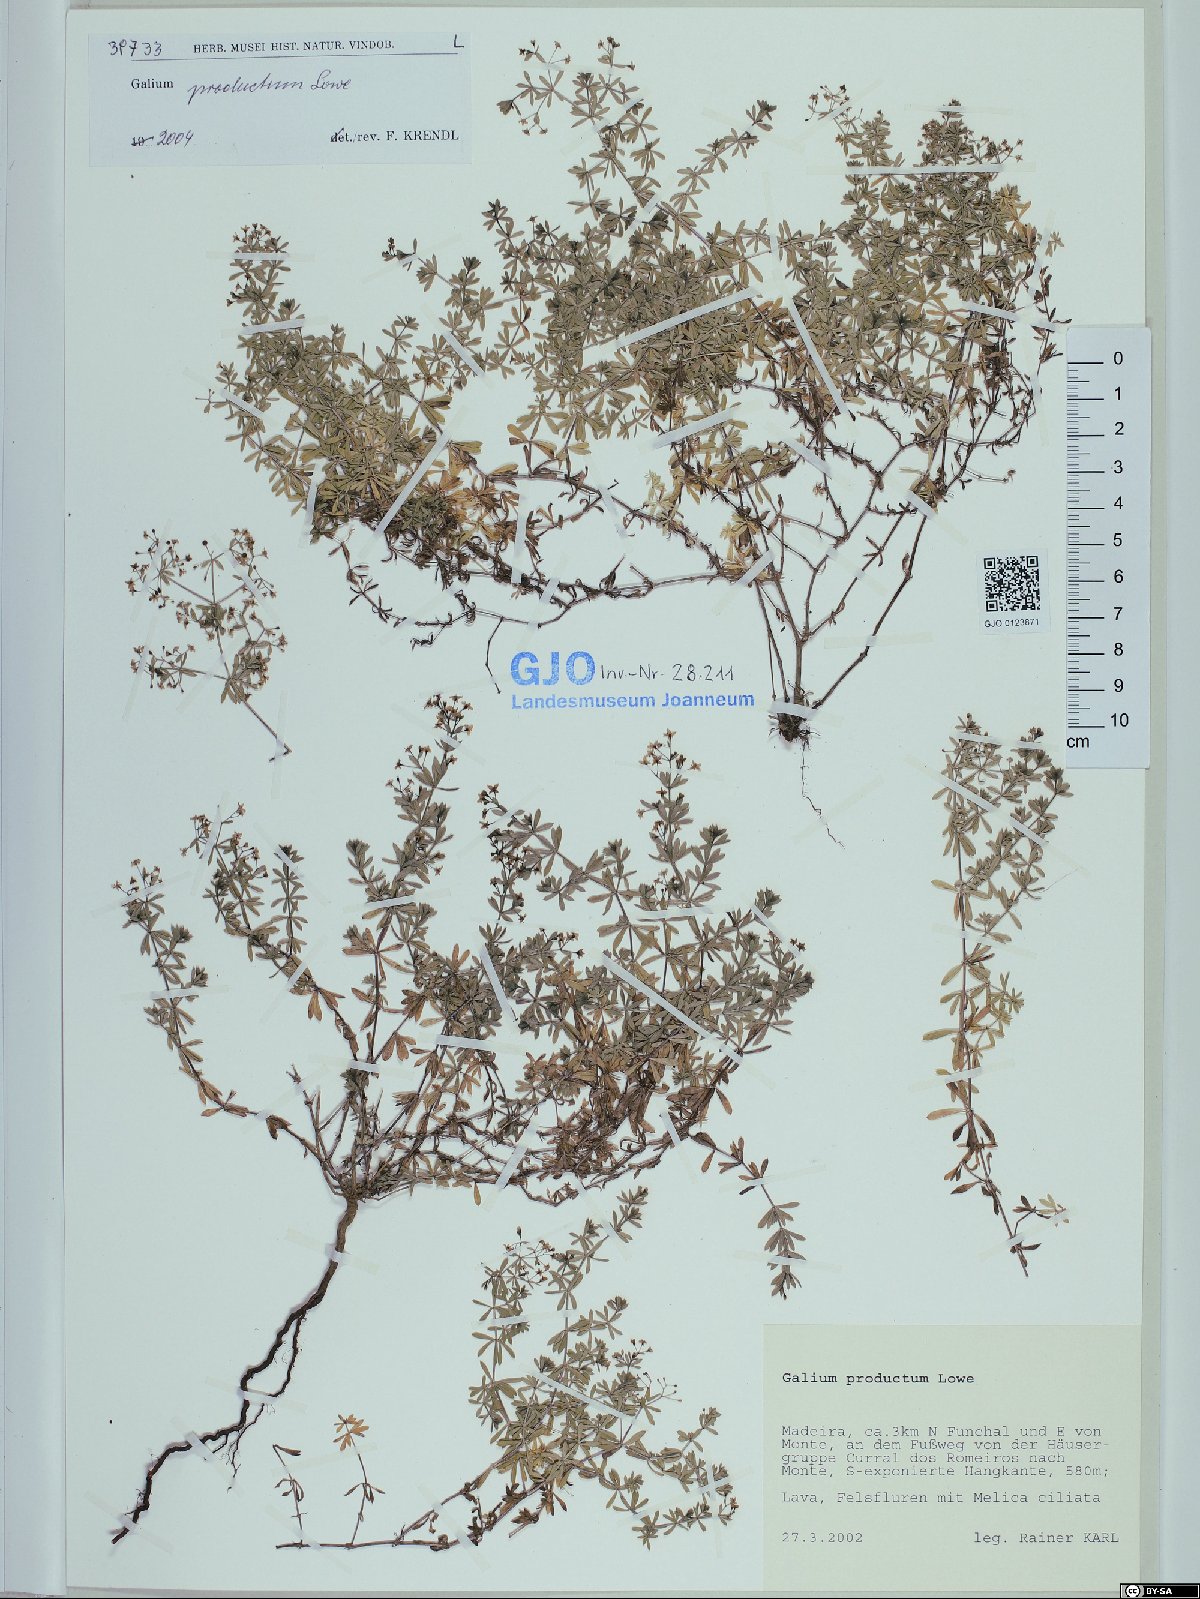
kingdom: Plantae
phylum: Tracheophyta
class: Magnoliopsida
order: Gentianales
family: Rubiaceae
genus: Galium
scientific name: Galium productum
